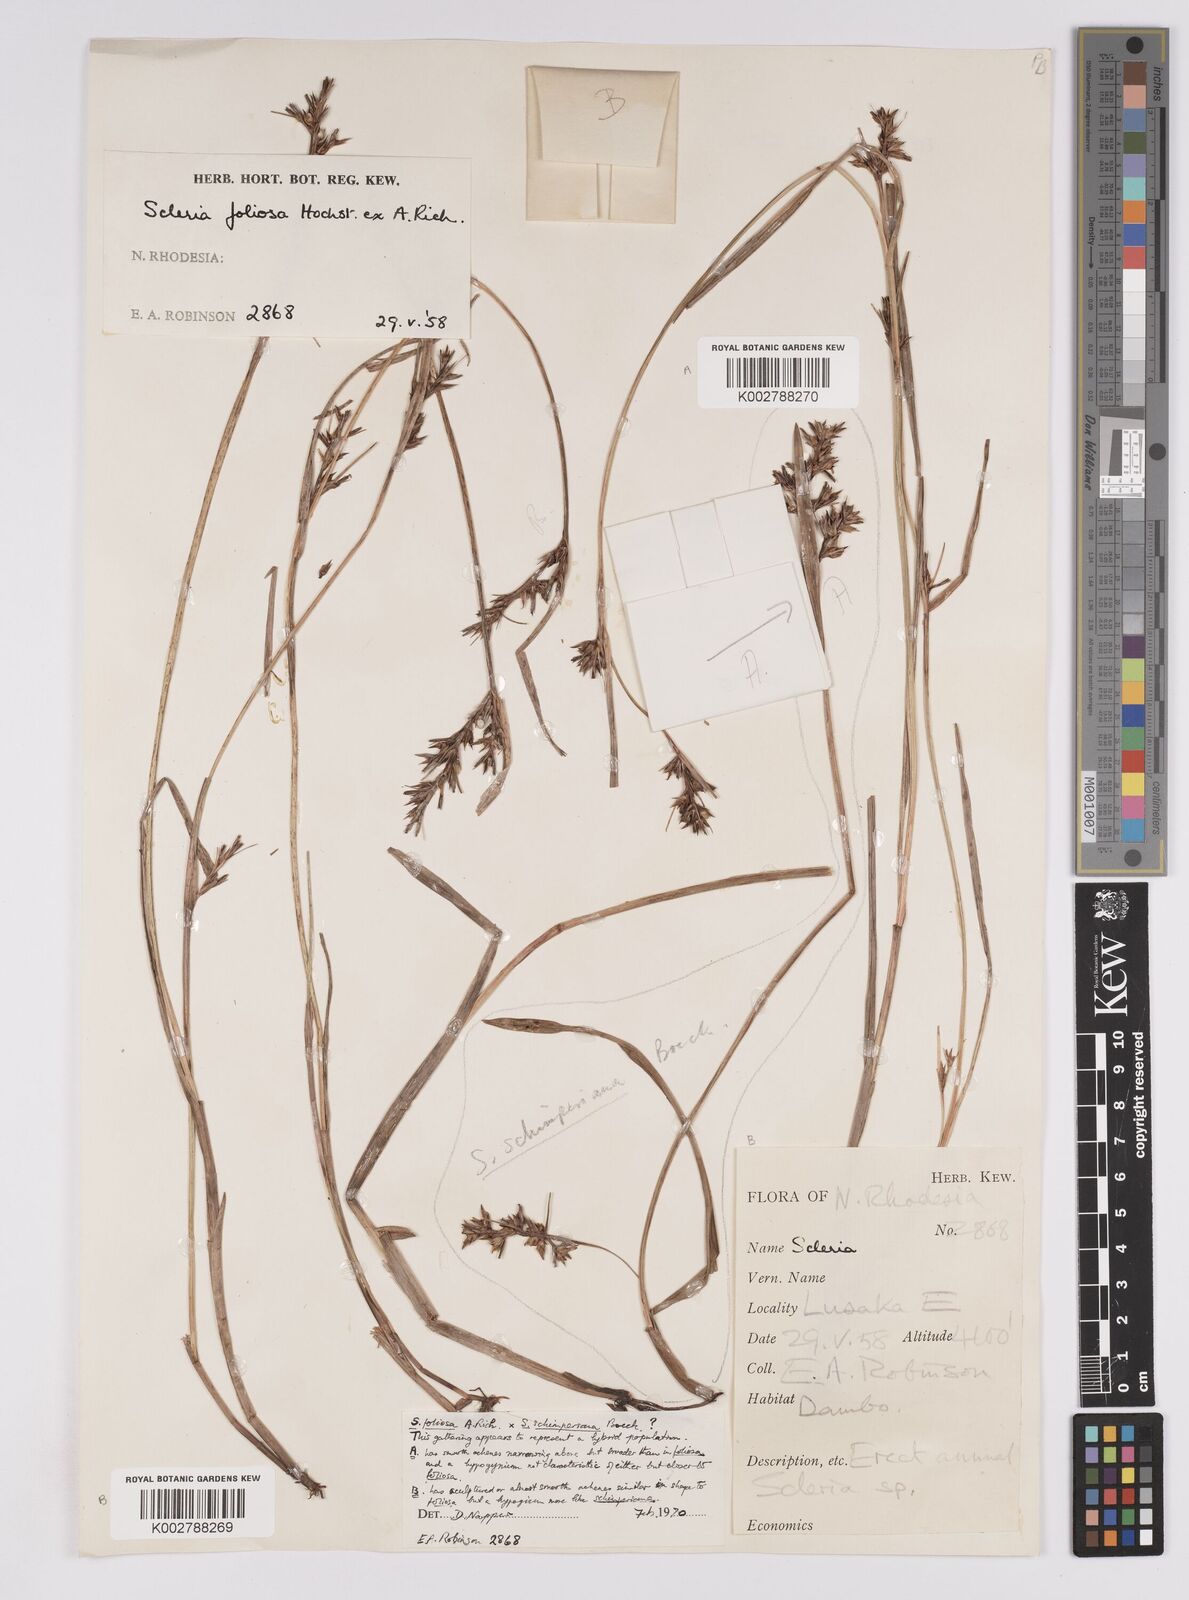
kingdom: Plantae
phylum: Tracheophyta
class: Liliopsida
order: Poales
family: Cyperaceae
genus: Scleria
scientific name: Scleria foliosa
